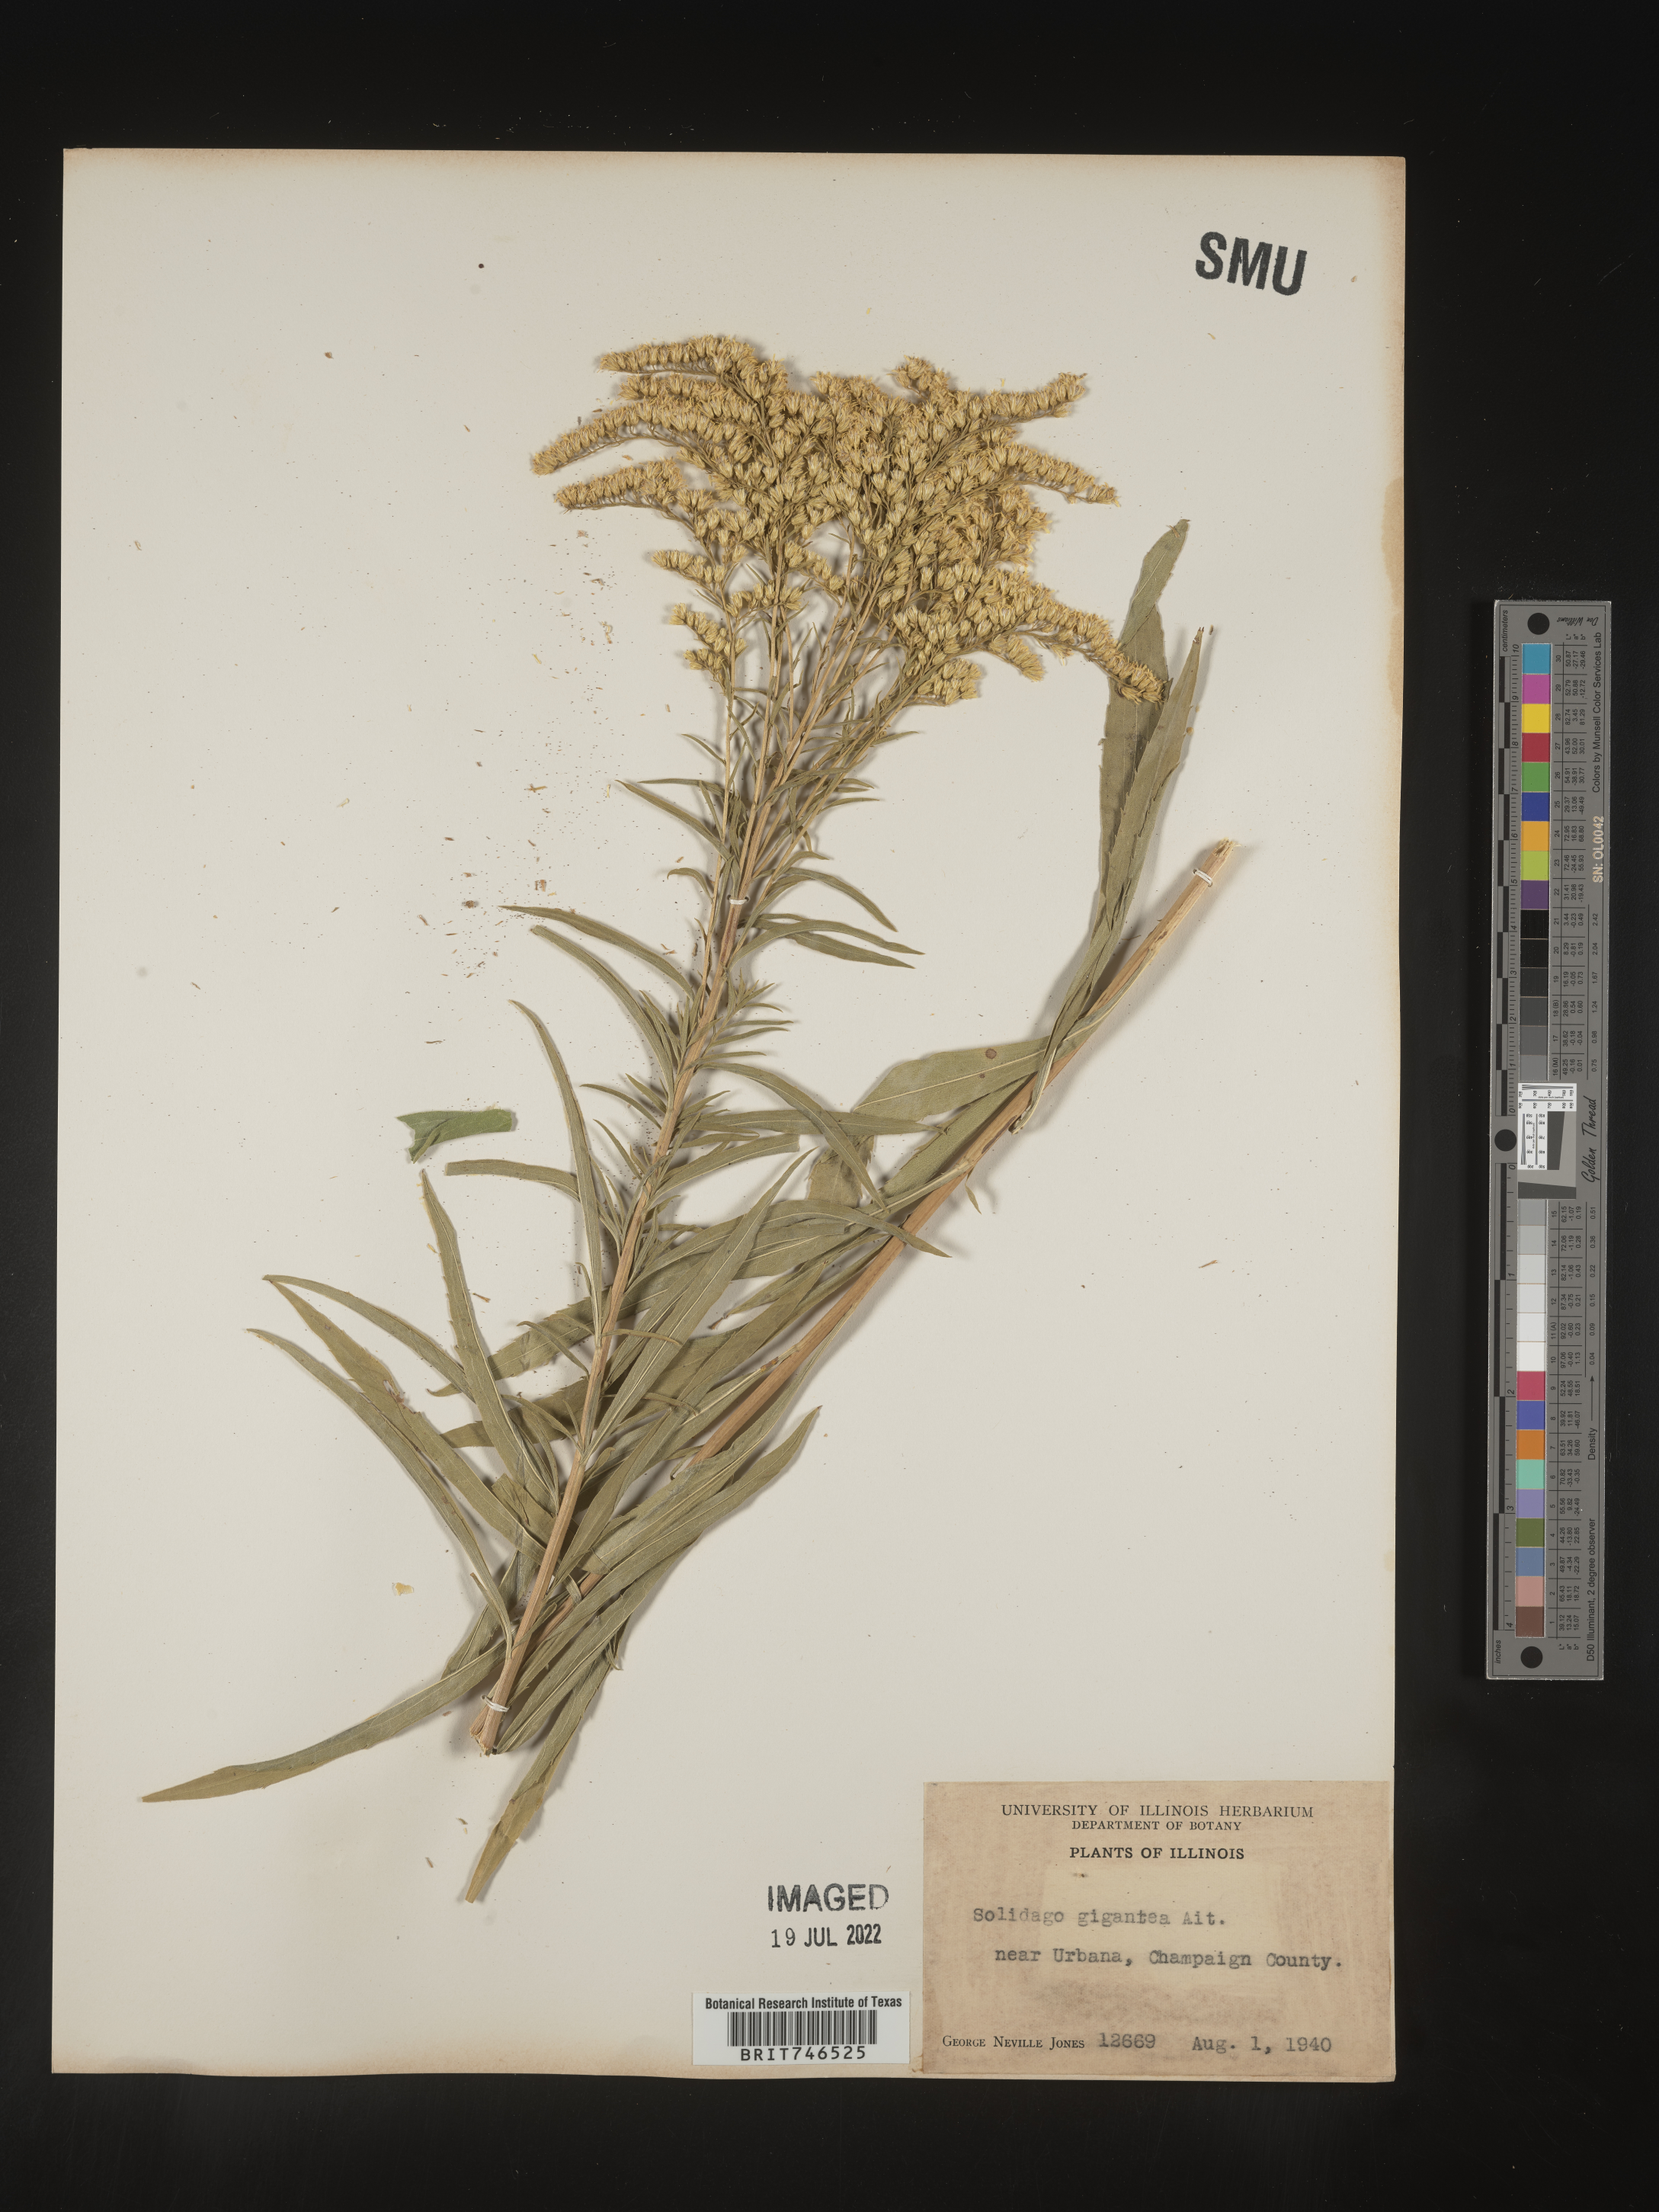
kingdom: Plantae
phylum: Tracheophyta
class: Magnoliopsida
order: Asterales
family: Asteraceae
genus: Solidago
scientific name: Solidago gigantea
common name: Giant goldenrod
